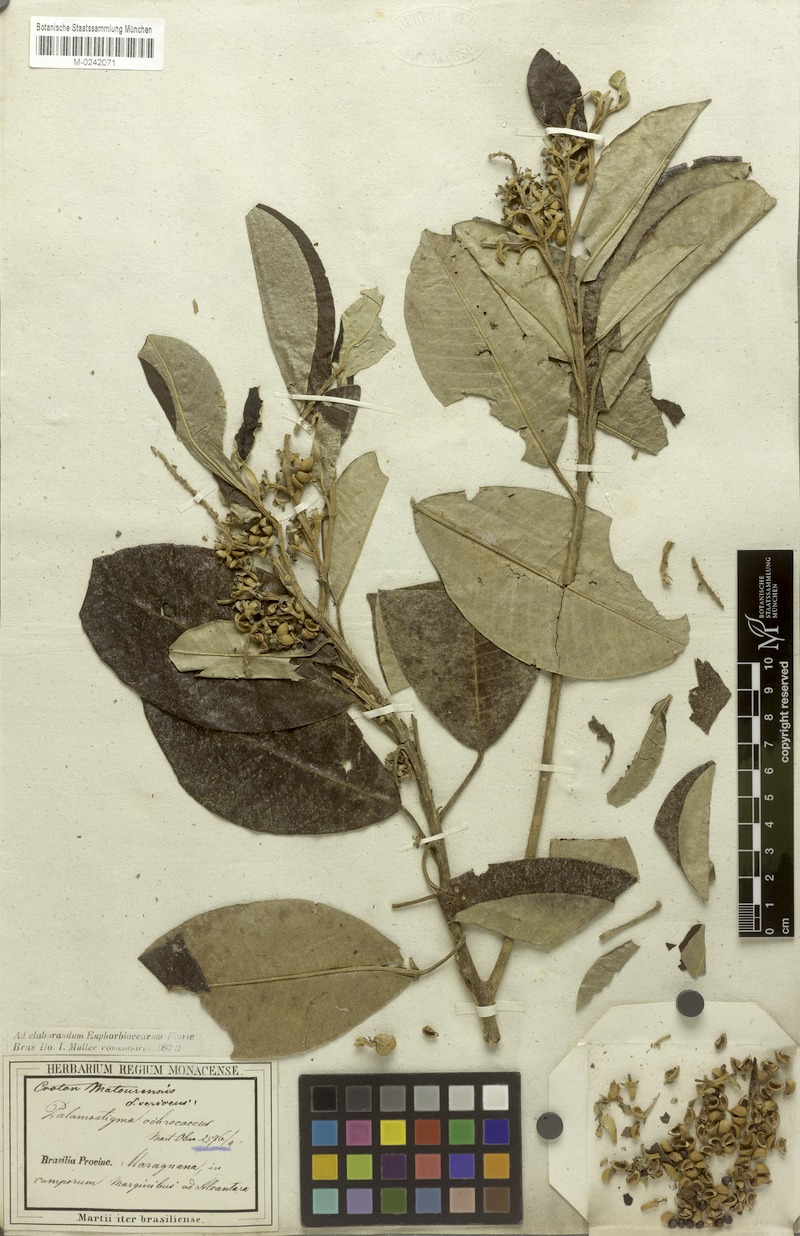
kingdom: Plantae
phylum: Tracheophyta
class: Magnoliopsida
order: Malpighiales
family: Euphorbiaceae
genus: Croton
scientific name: Croton matourensis
